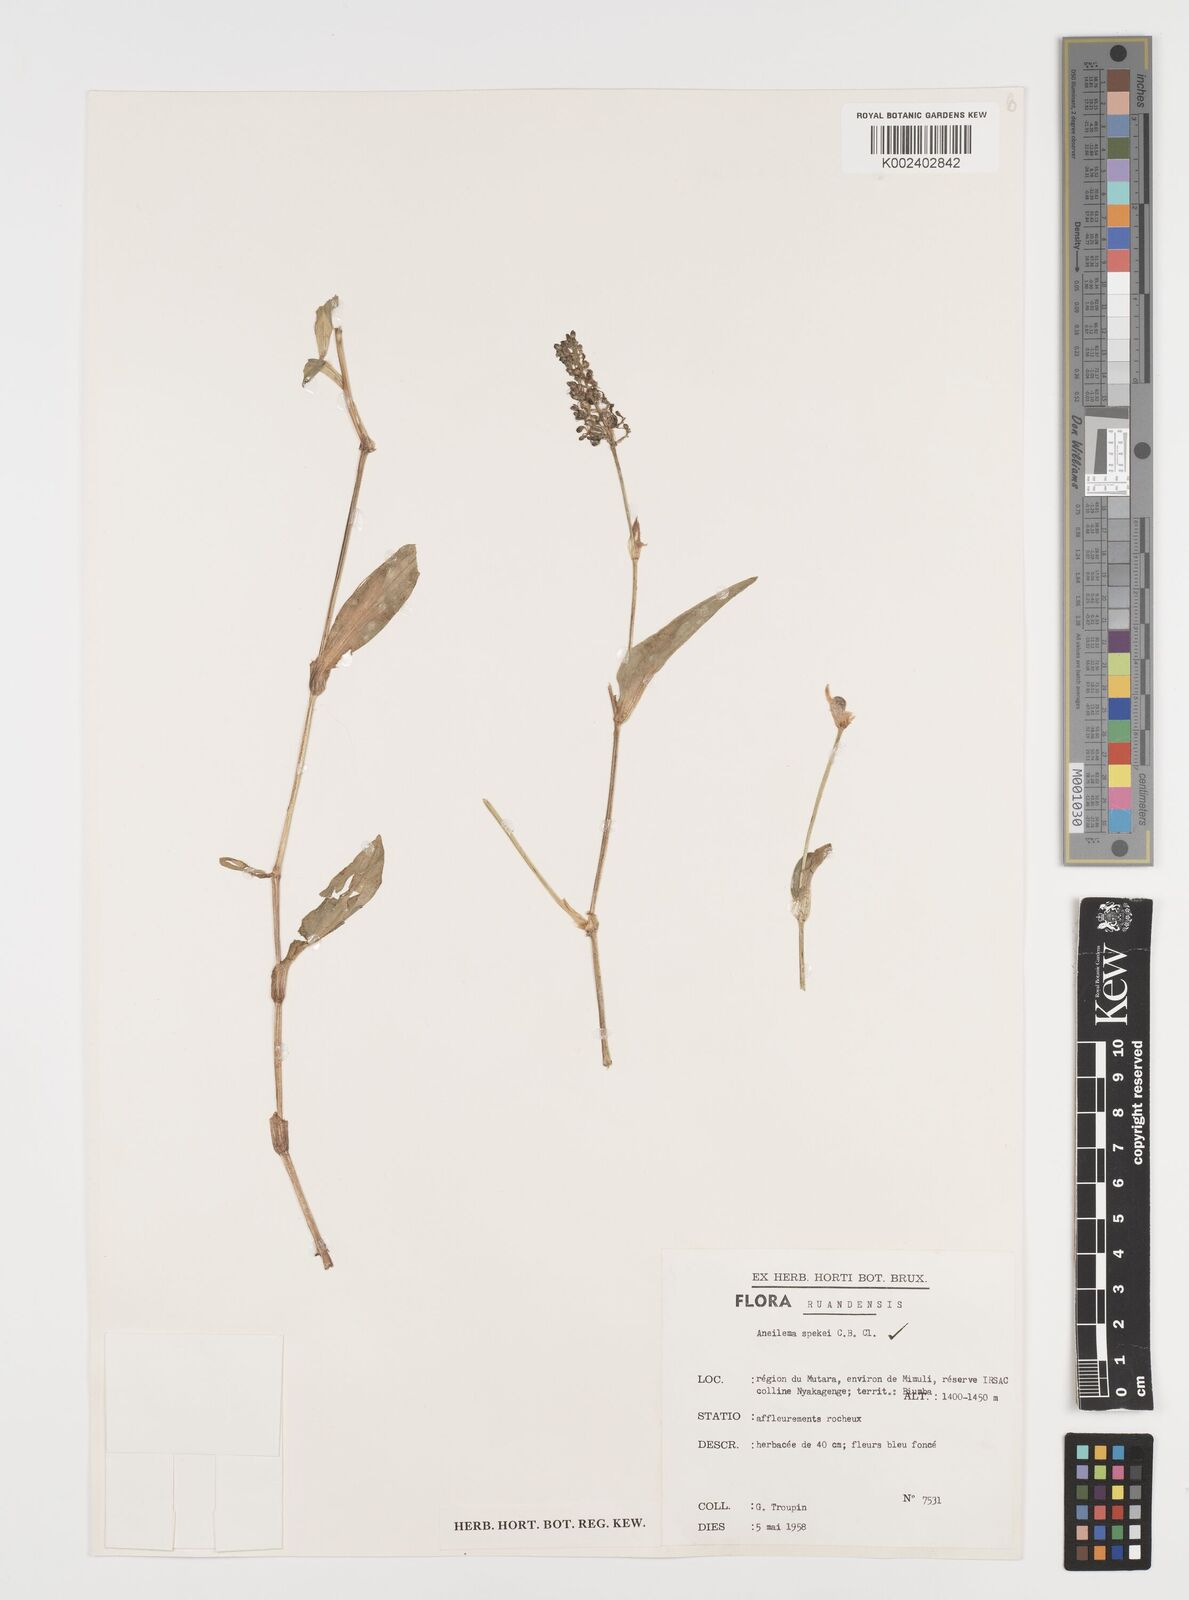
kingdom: Plantae
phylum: Tracheophyta
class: Liliopsida
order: Commelinales
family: Commelinaceae
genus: Aneilema
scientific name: Aneilema spekei
